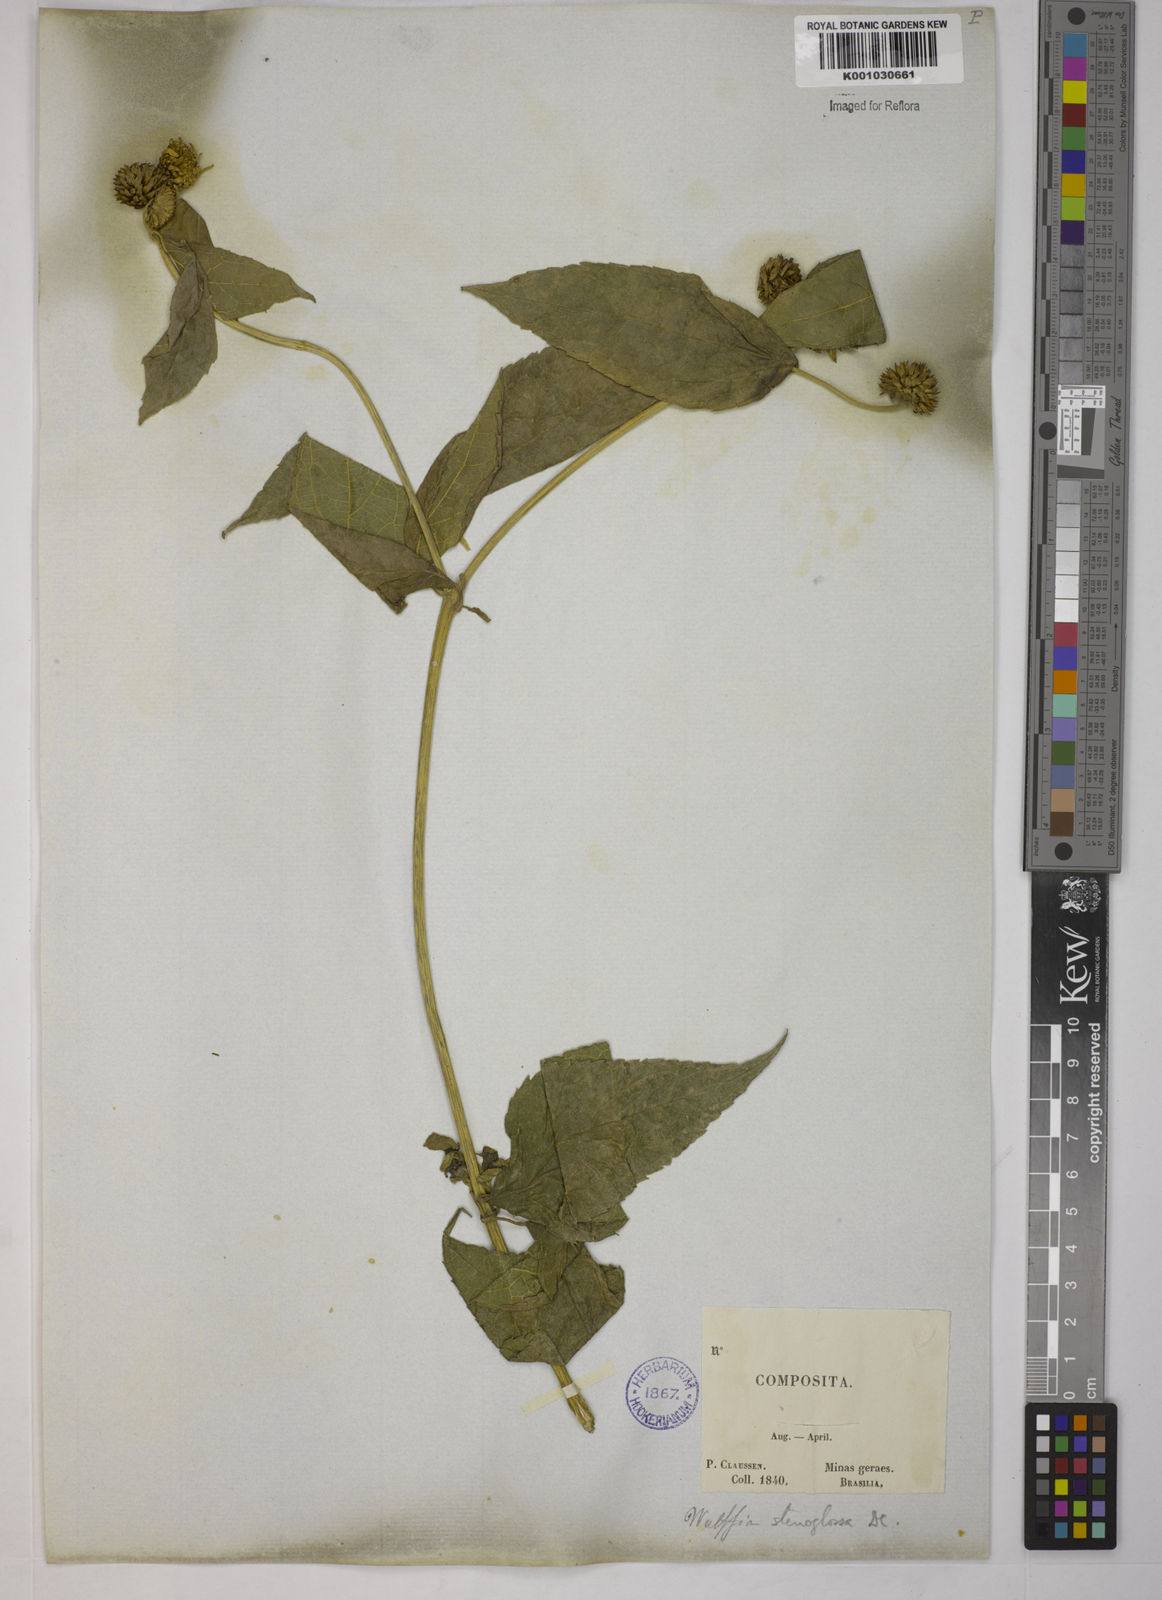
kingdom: Plantae
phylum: Tracheophyta
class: Magnoliopsida
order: Asterales
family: Asteraceae
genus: Tilesia
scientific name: Tilesia baccata
